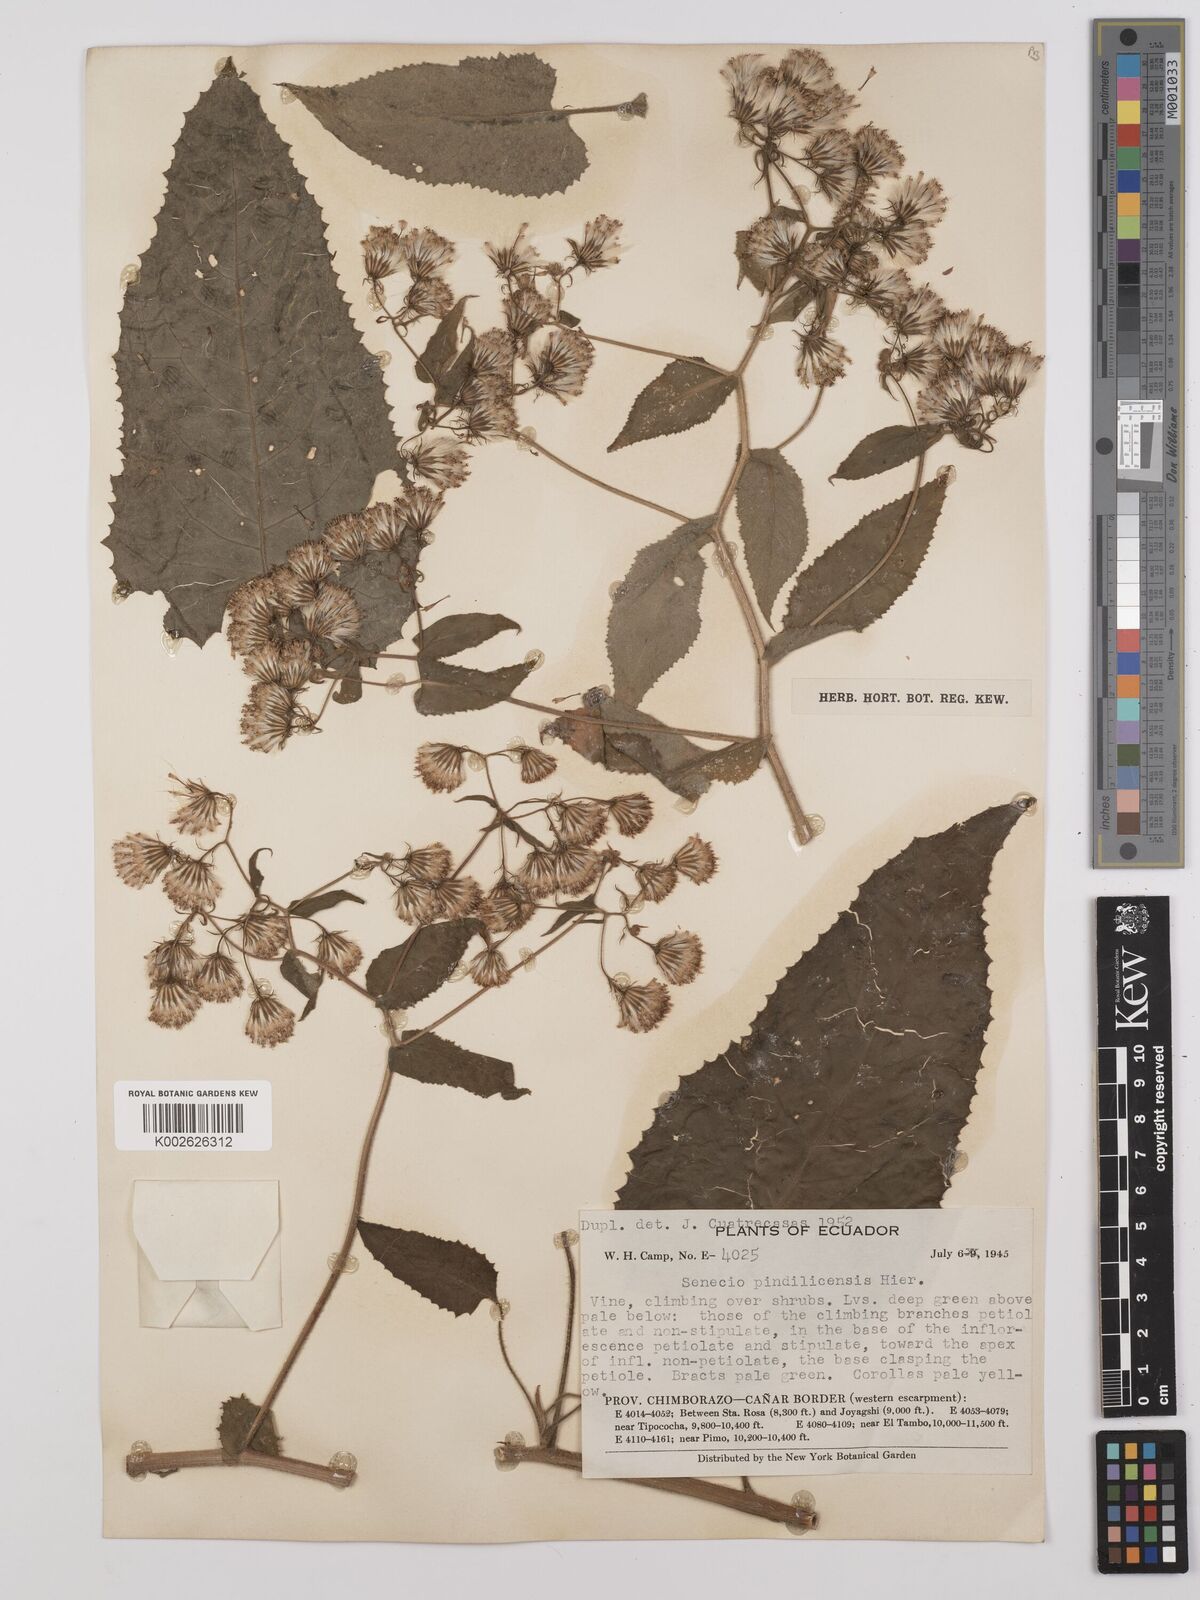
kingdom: Plantae
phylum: Tracheophyta
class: Magnoliopsida
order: Asterales
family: Asteraceae
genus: Aetheolaena
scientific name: Aetheolaena heterophylla
